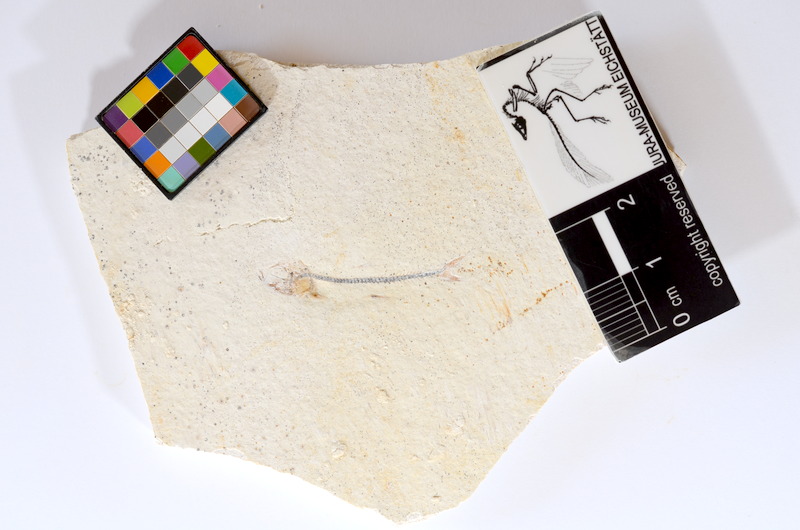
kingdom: Animalia
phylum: Chordata
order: Salmoniformes
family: Orthogonikleithridae
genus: Orthogonikleithrus
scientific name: Orthogonikleithrus hoelli
